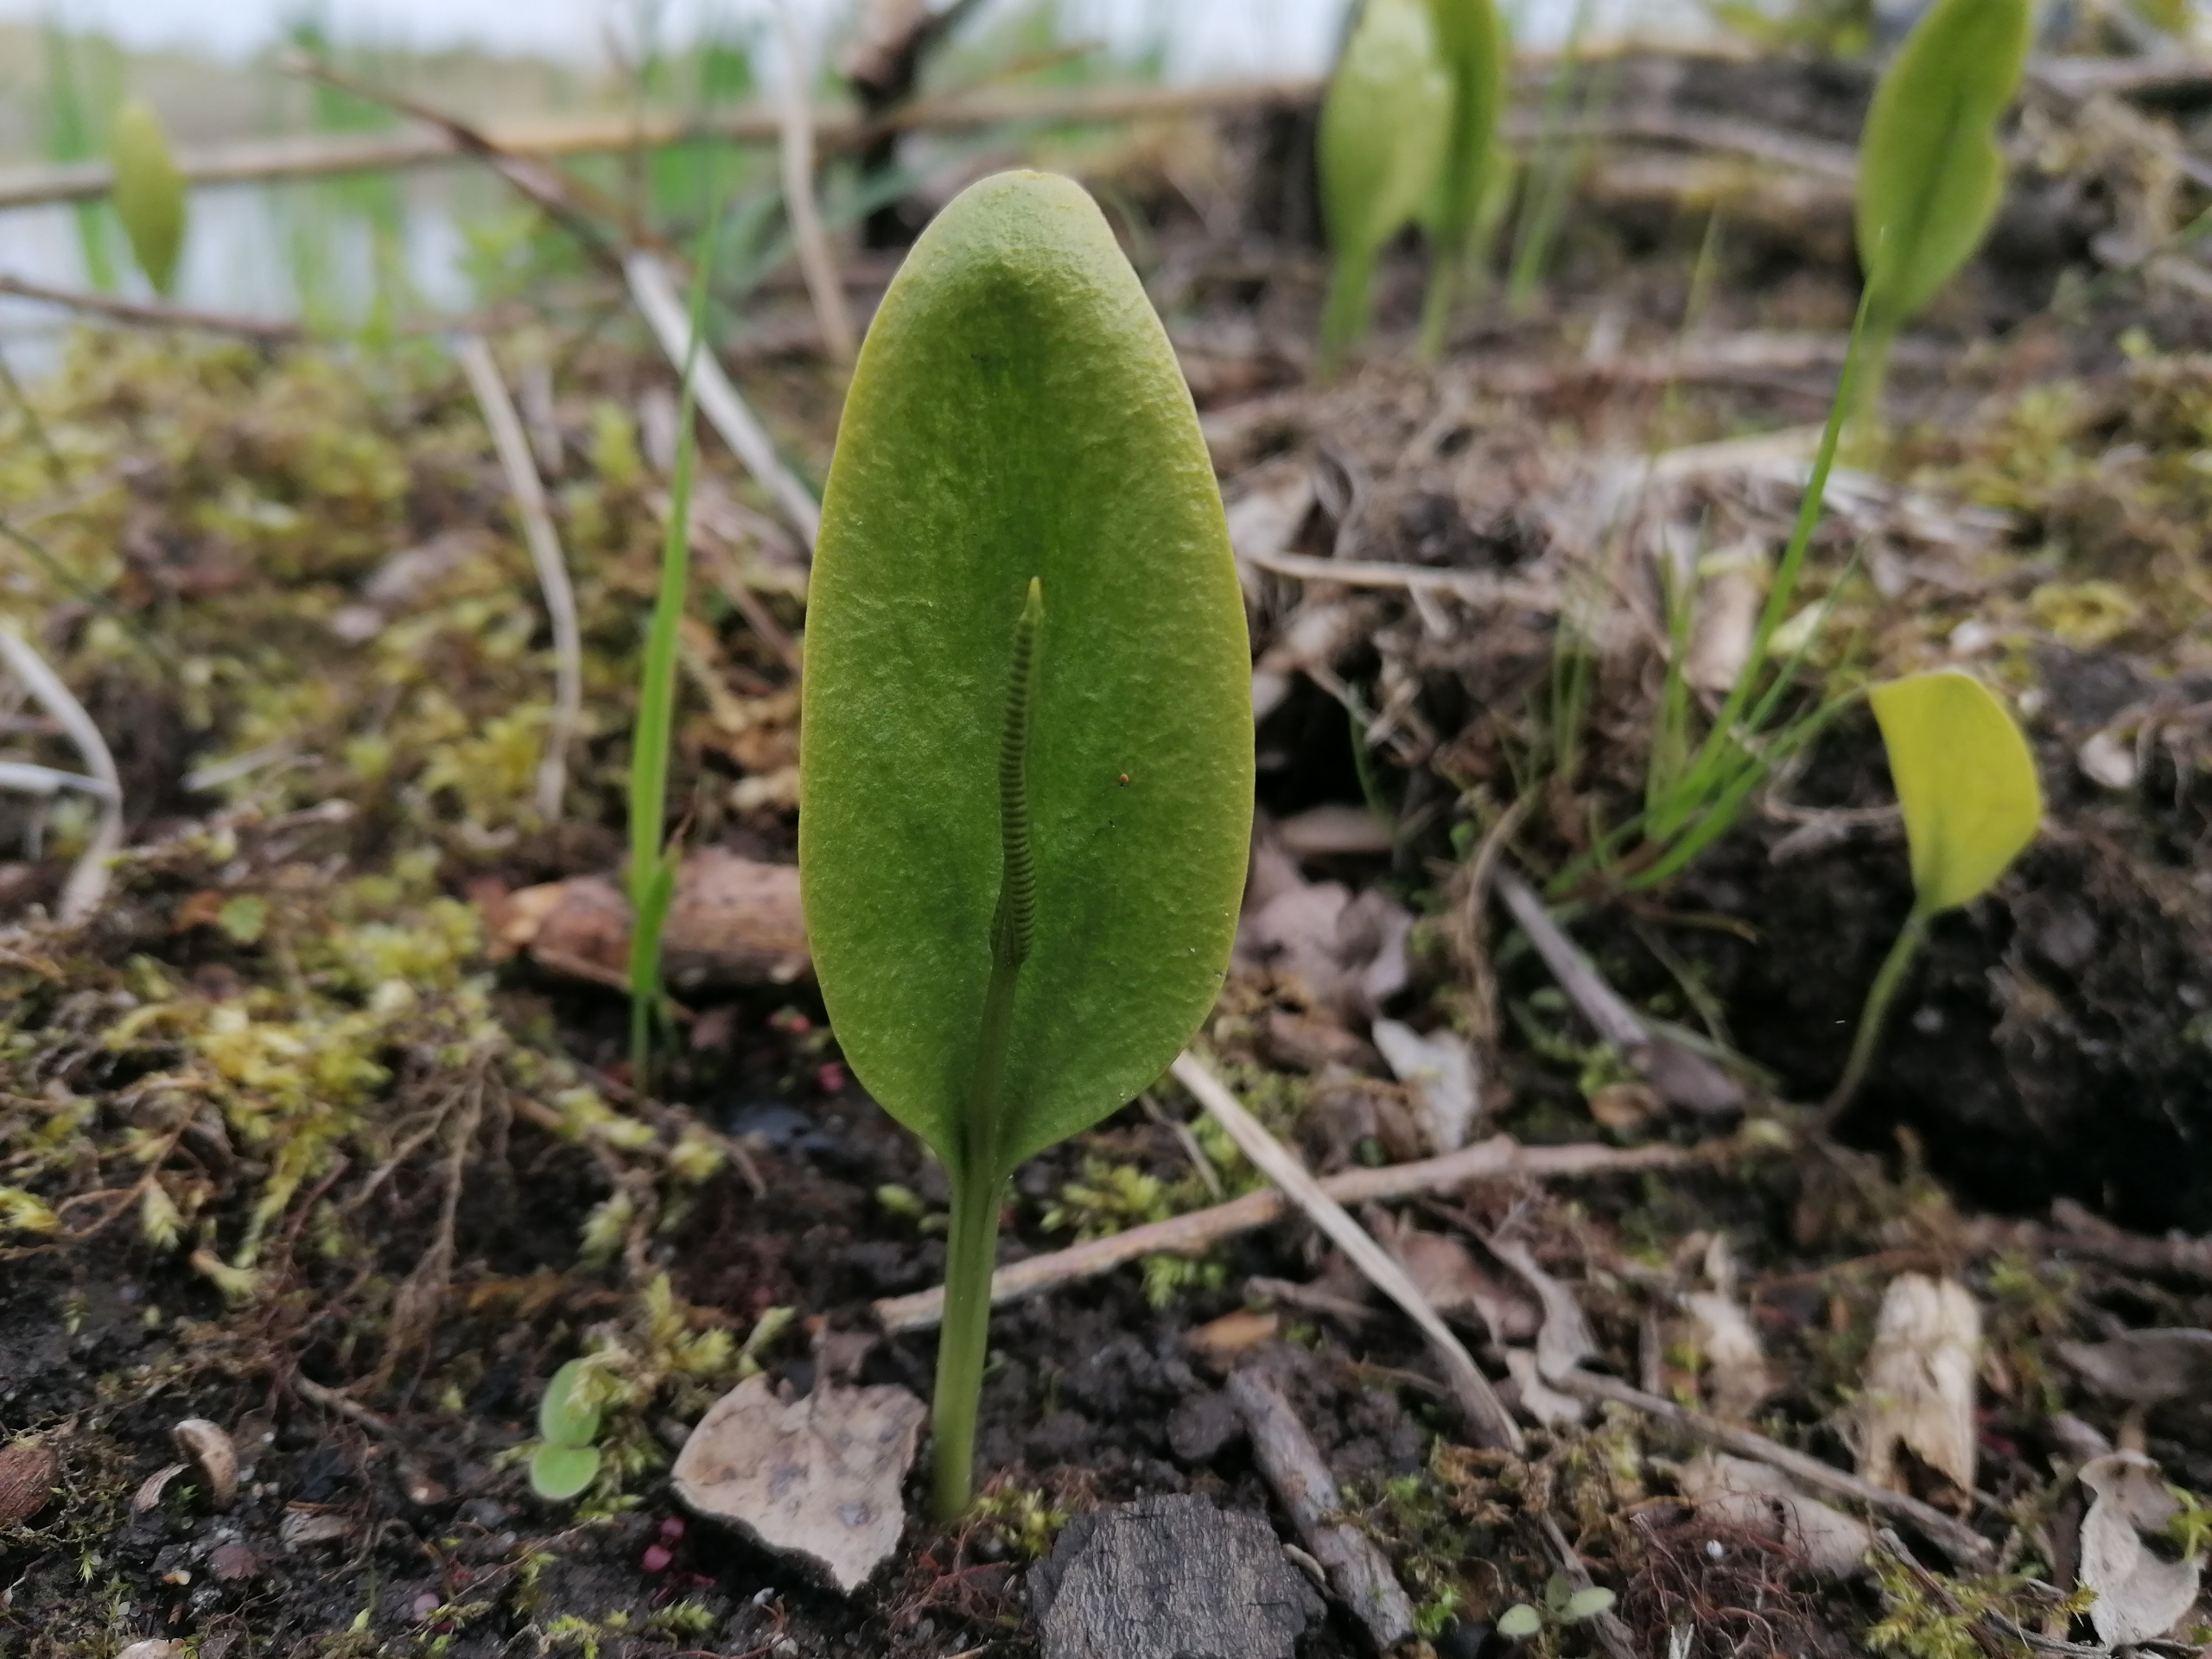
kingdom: Plantae
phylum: Tracheophyta
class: Polypodiopsida
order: Ophioglossales
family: Ophioglossaceae
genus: Ophioglossum
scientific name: Ophioglossum vulgatum
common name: Slangetunge
